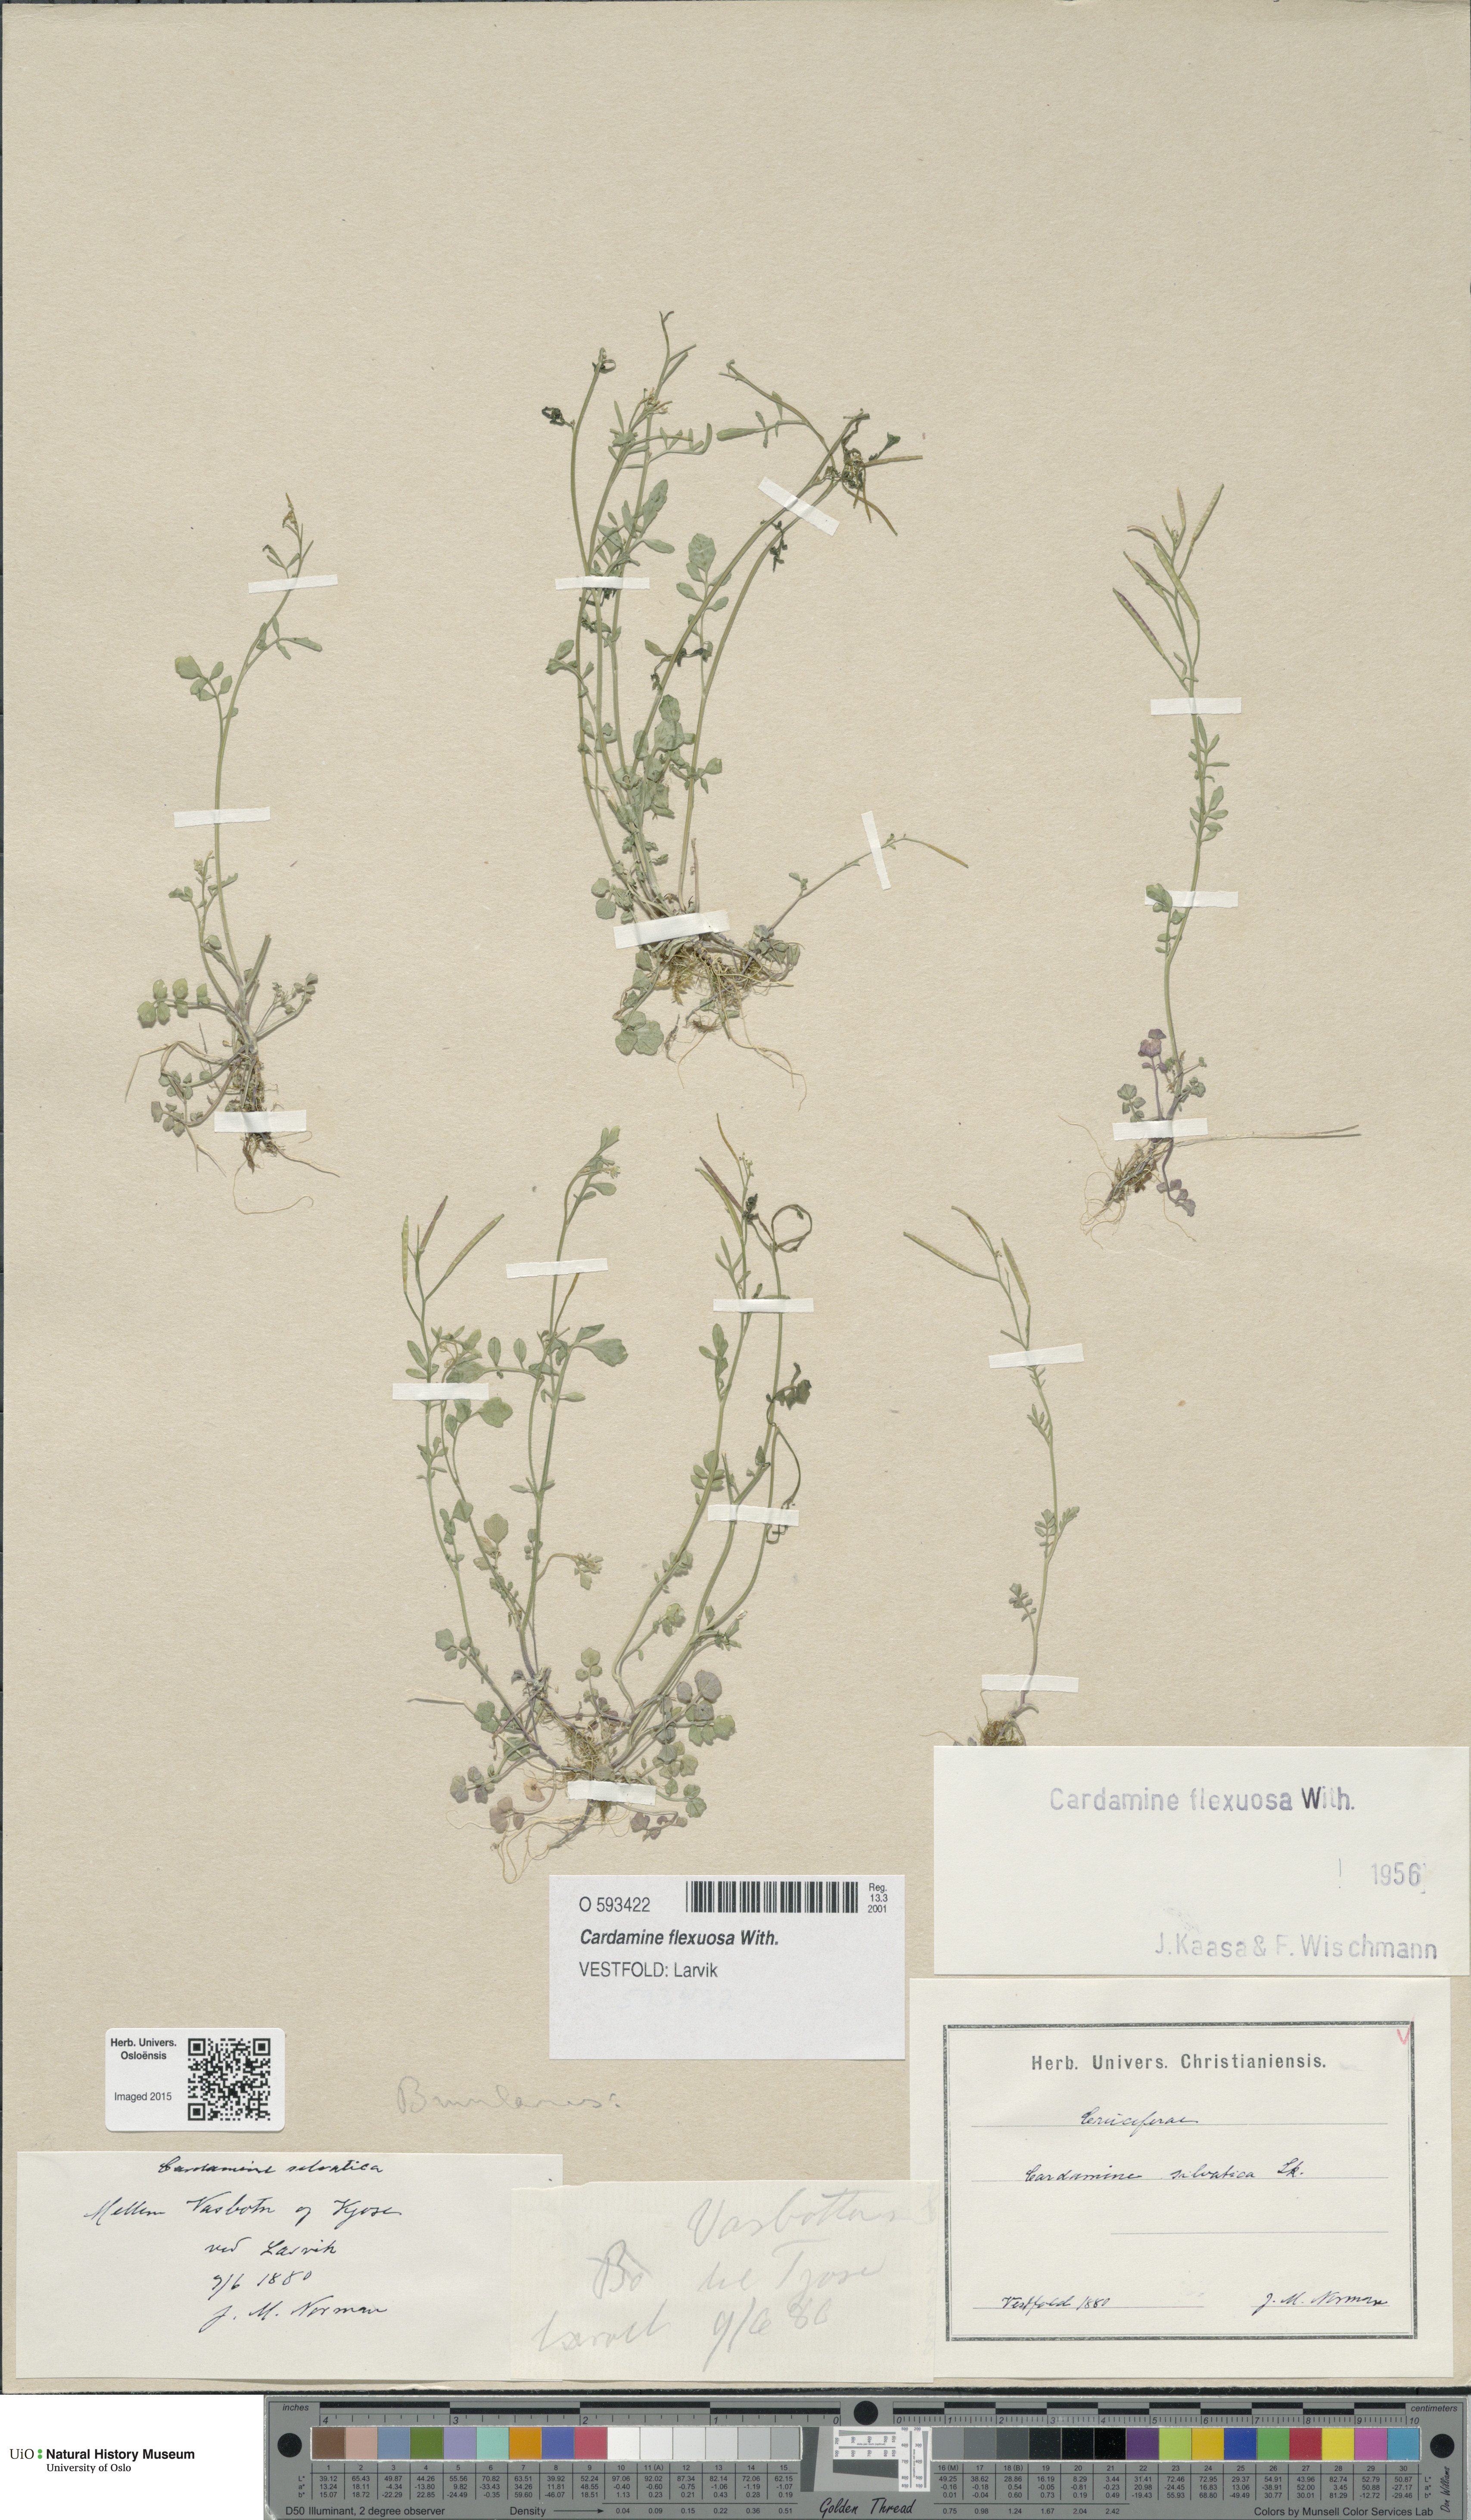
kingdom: Plantae
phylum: Tracheophyta
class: Magnoliopsida
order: Brassicales
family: Brassicaceae
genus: Cardamine
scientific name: Cardamine flexuosa
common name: Woodland bittercress
